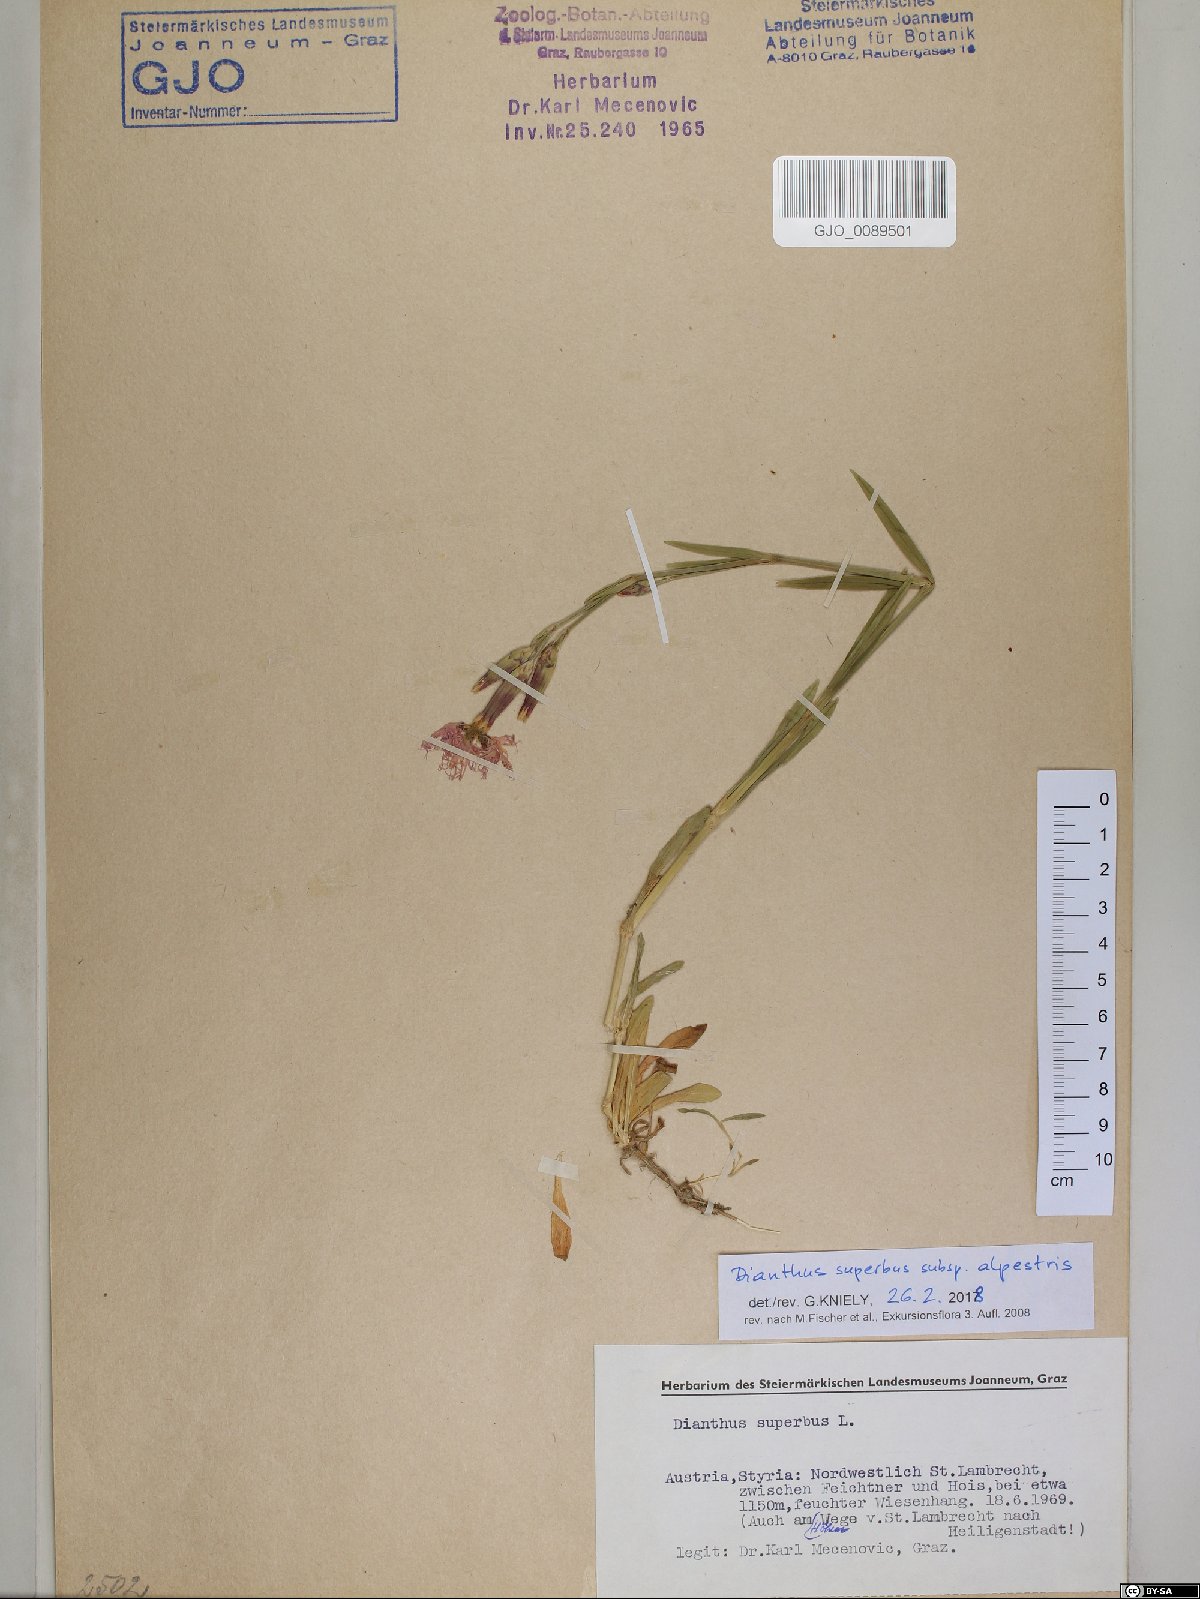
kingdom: Plantae
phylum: Tracheophyta
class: Magnoliopsida
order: Caryophyllales
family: Caryophyllaceae
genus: Dianthus
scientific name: Dianthus superbus
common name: Fringed pink
